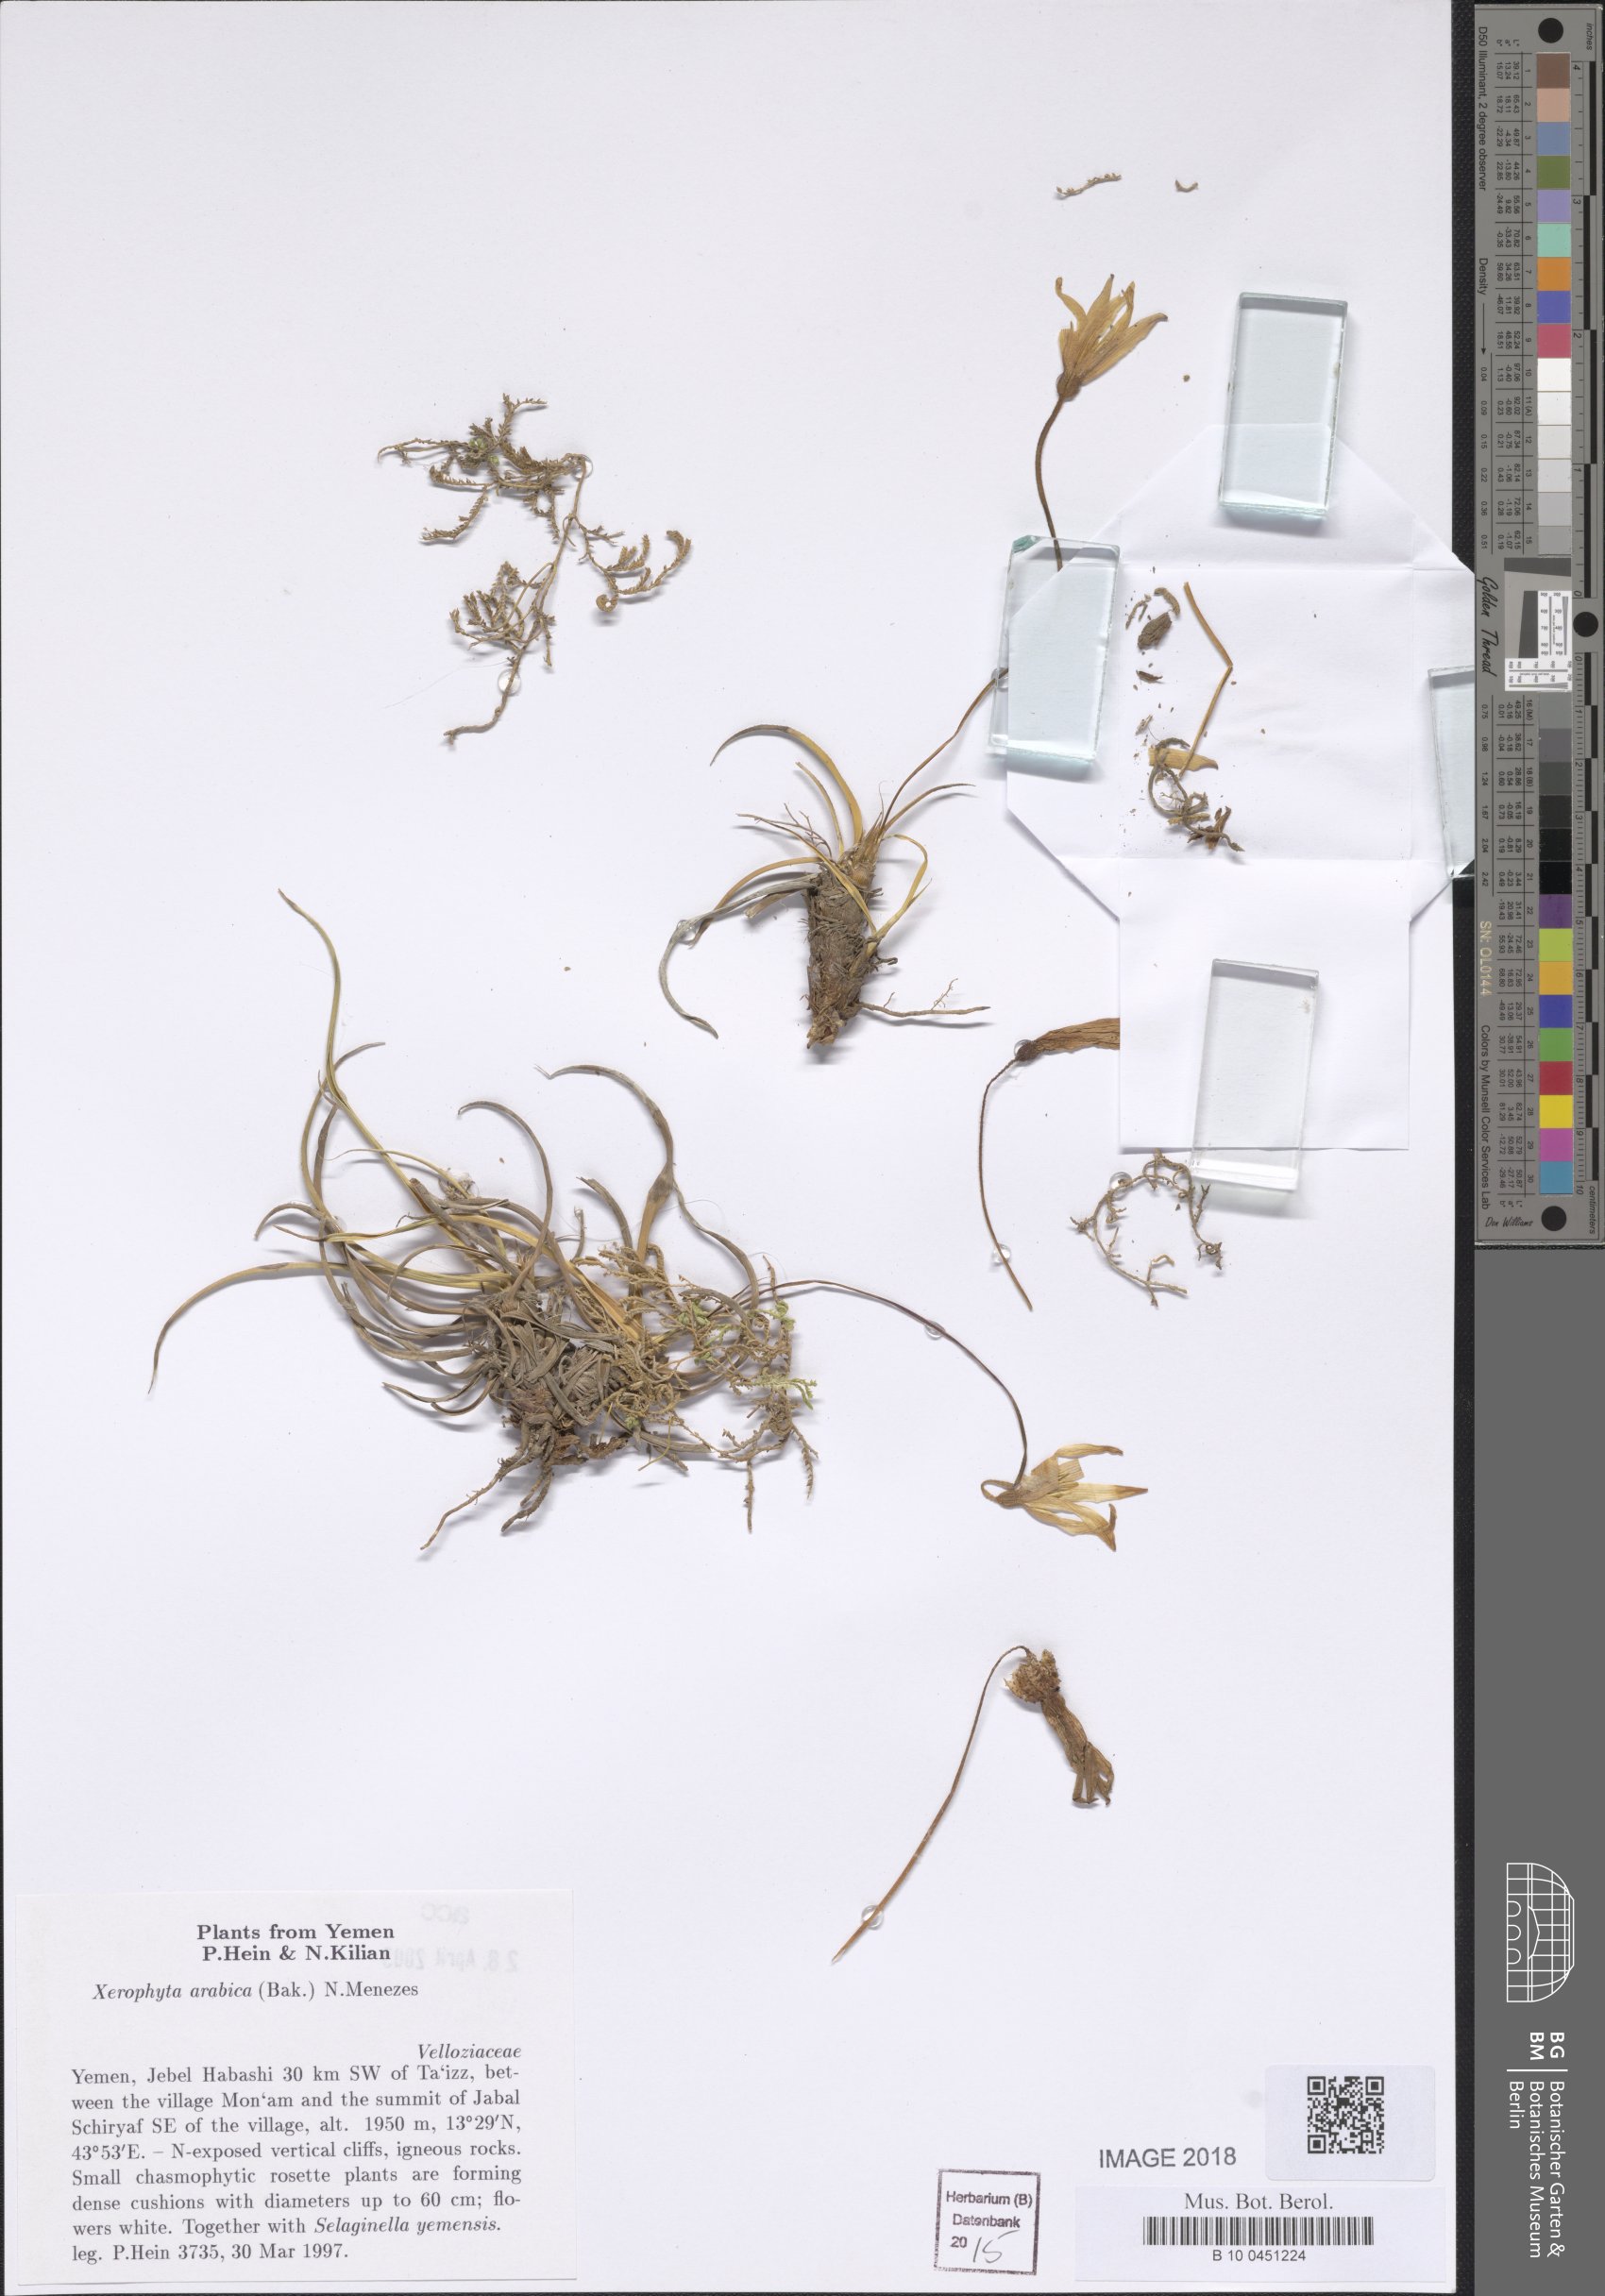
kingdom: Plantae
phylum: Tracheophyta
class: Liliopsida
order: Pandanales
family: Velloziaceae
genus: Xerophyta
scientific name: Xerophyta arabica
